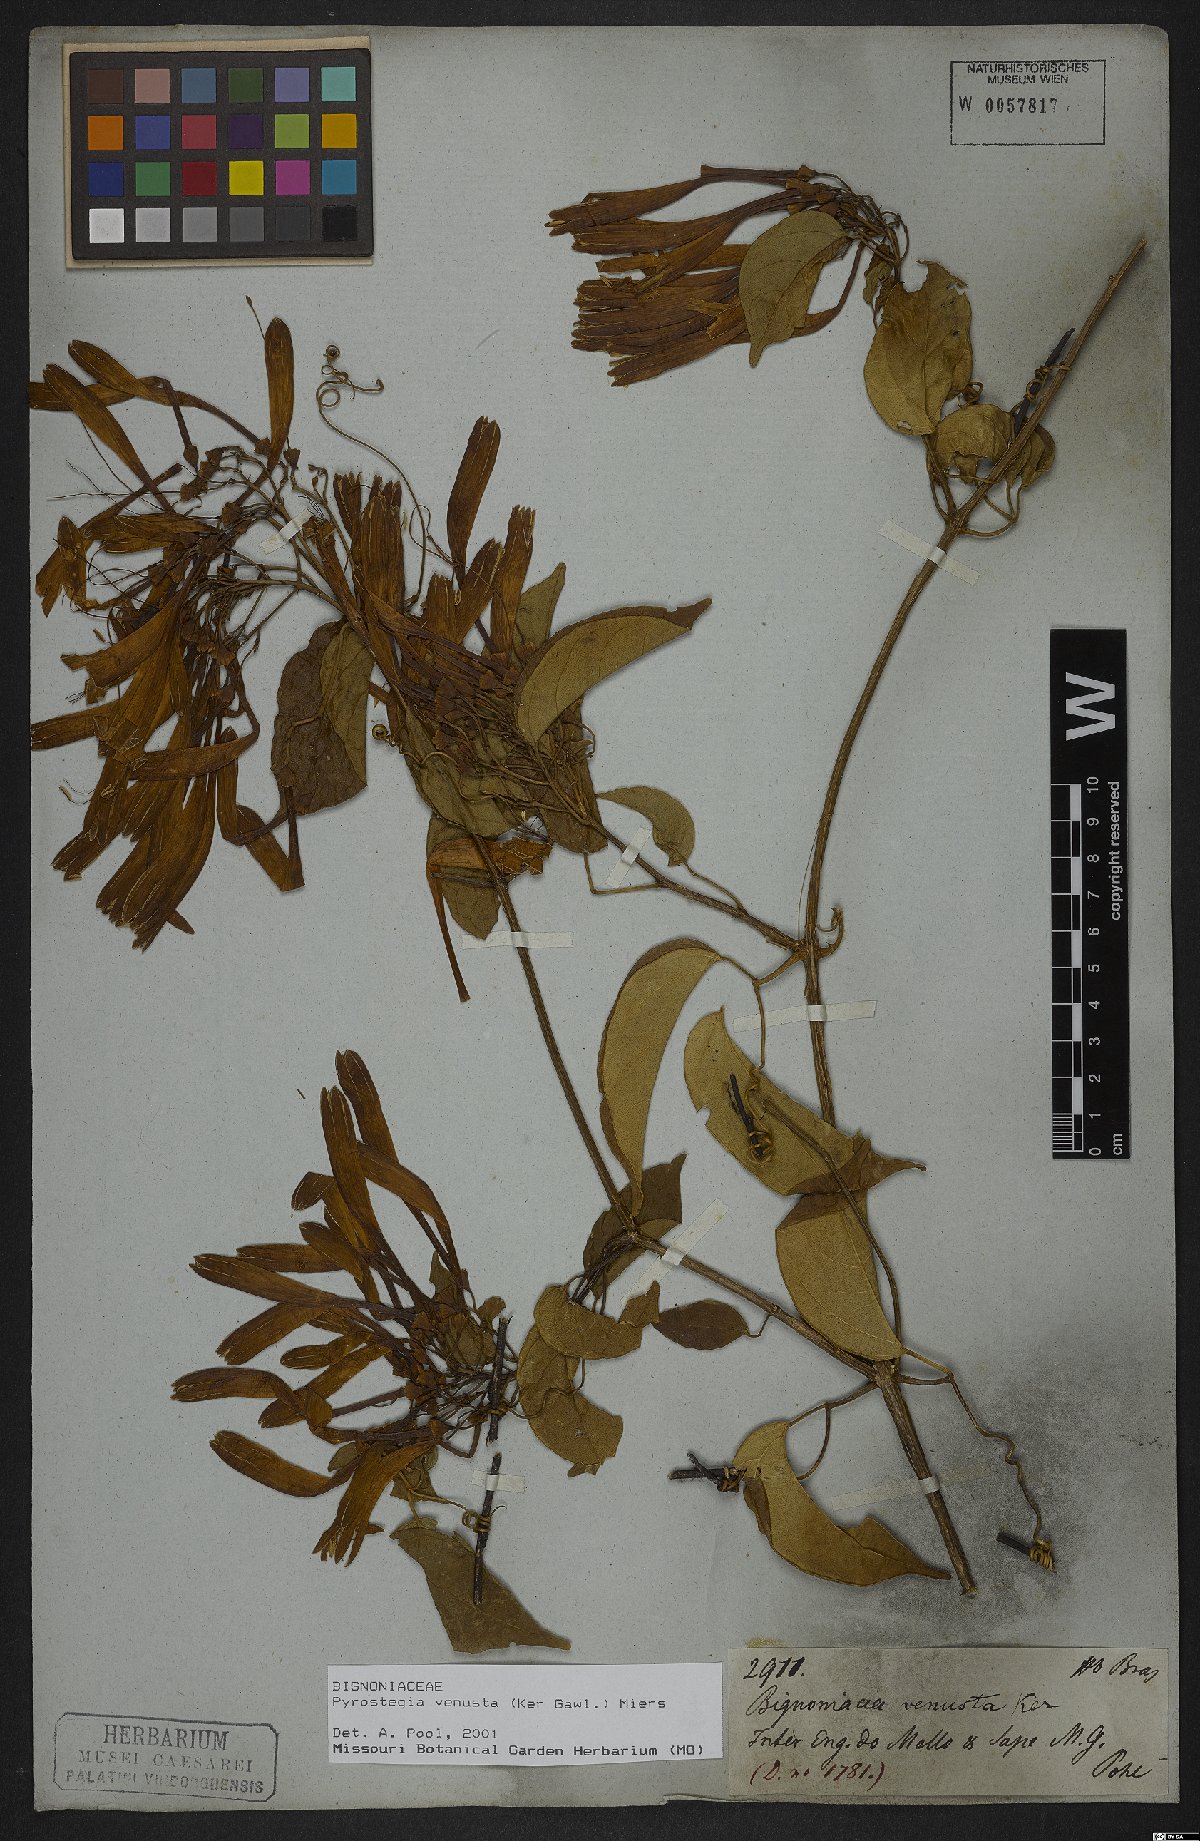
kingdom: Plantae
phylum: Tracheophyta
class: Magnoliopsida
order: Lamiales
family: Bignoniaceae
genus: Pyrostegia
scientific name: Pyrostegia venusta
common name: Flamevine
